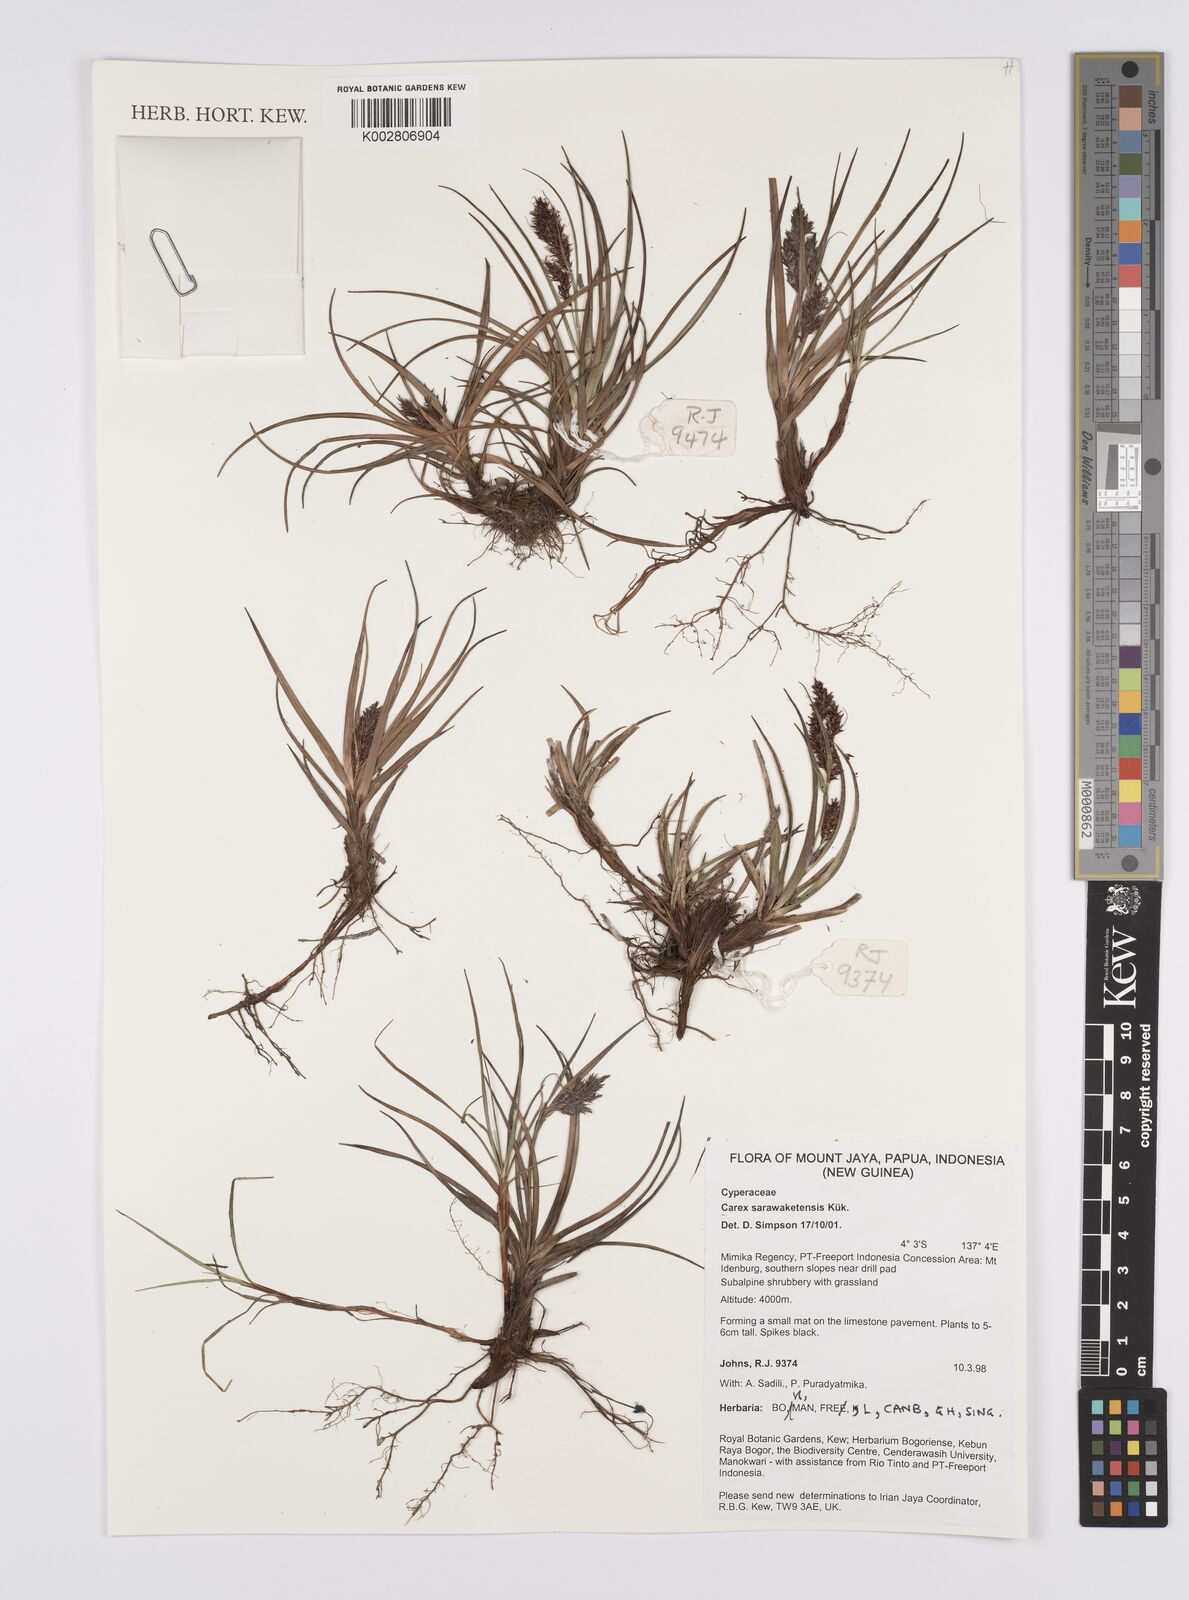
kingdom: Plantae
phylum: Tracheophyta
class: Liliopsida
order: Poales
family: Cyperaceae
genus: Carex
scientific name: Carex sarawaketensis
